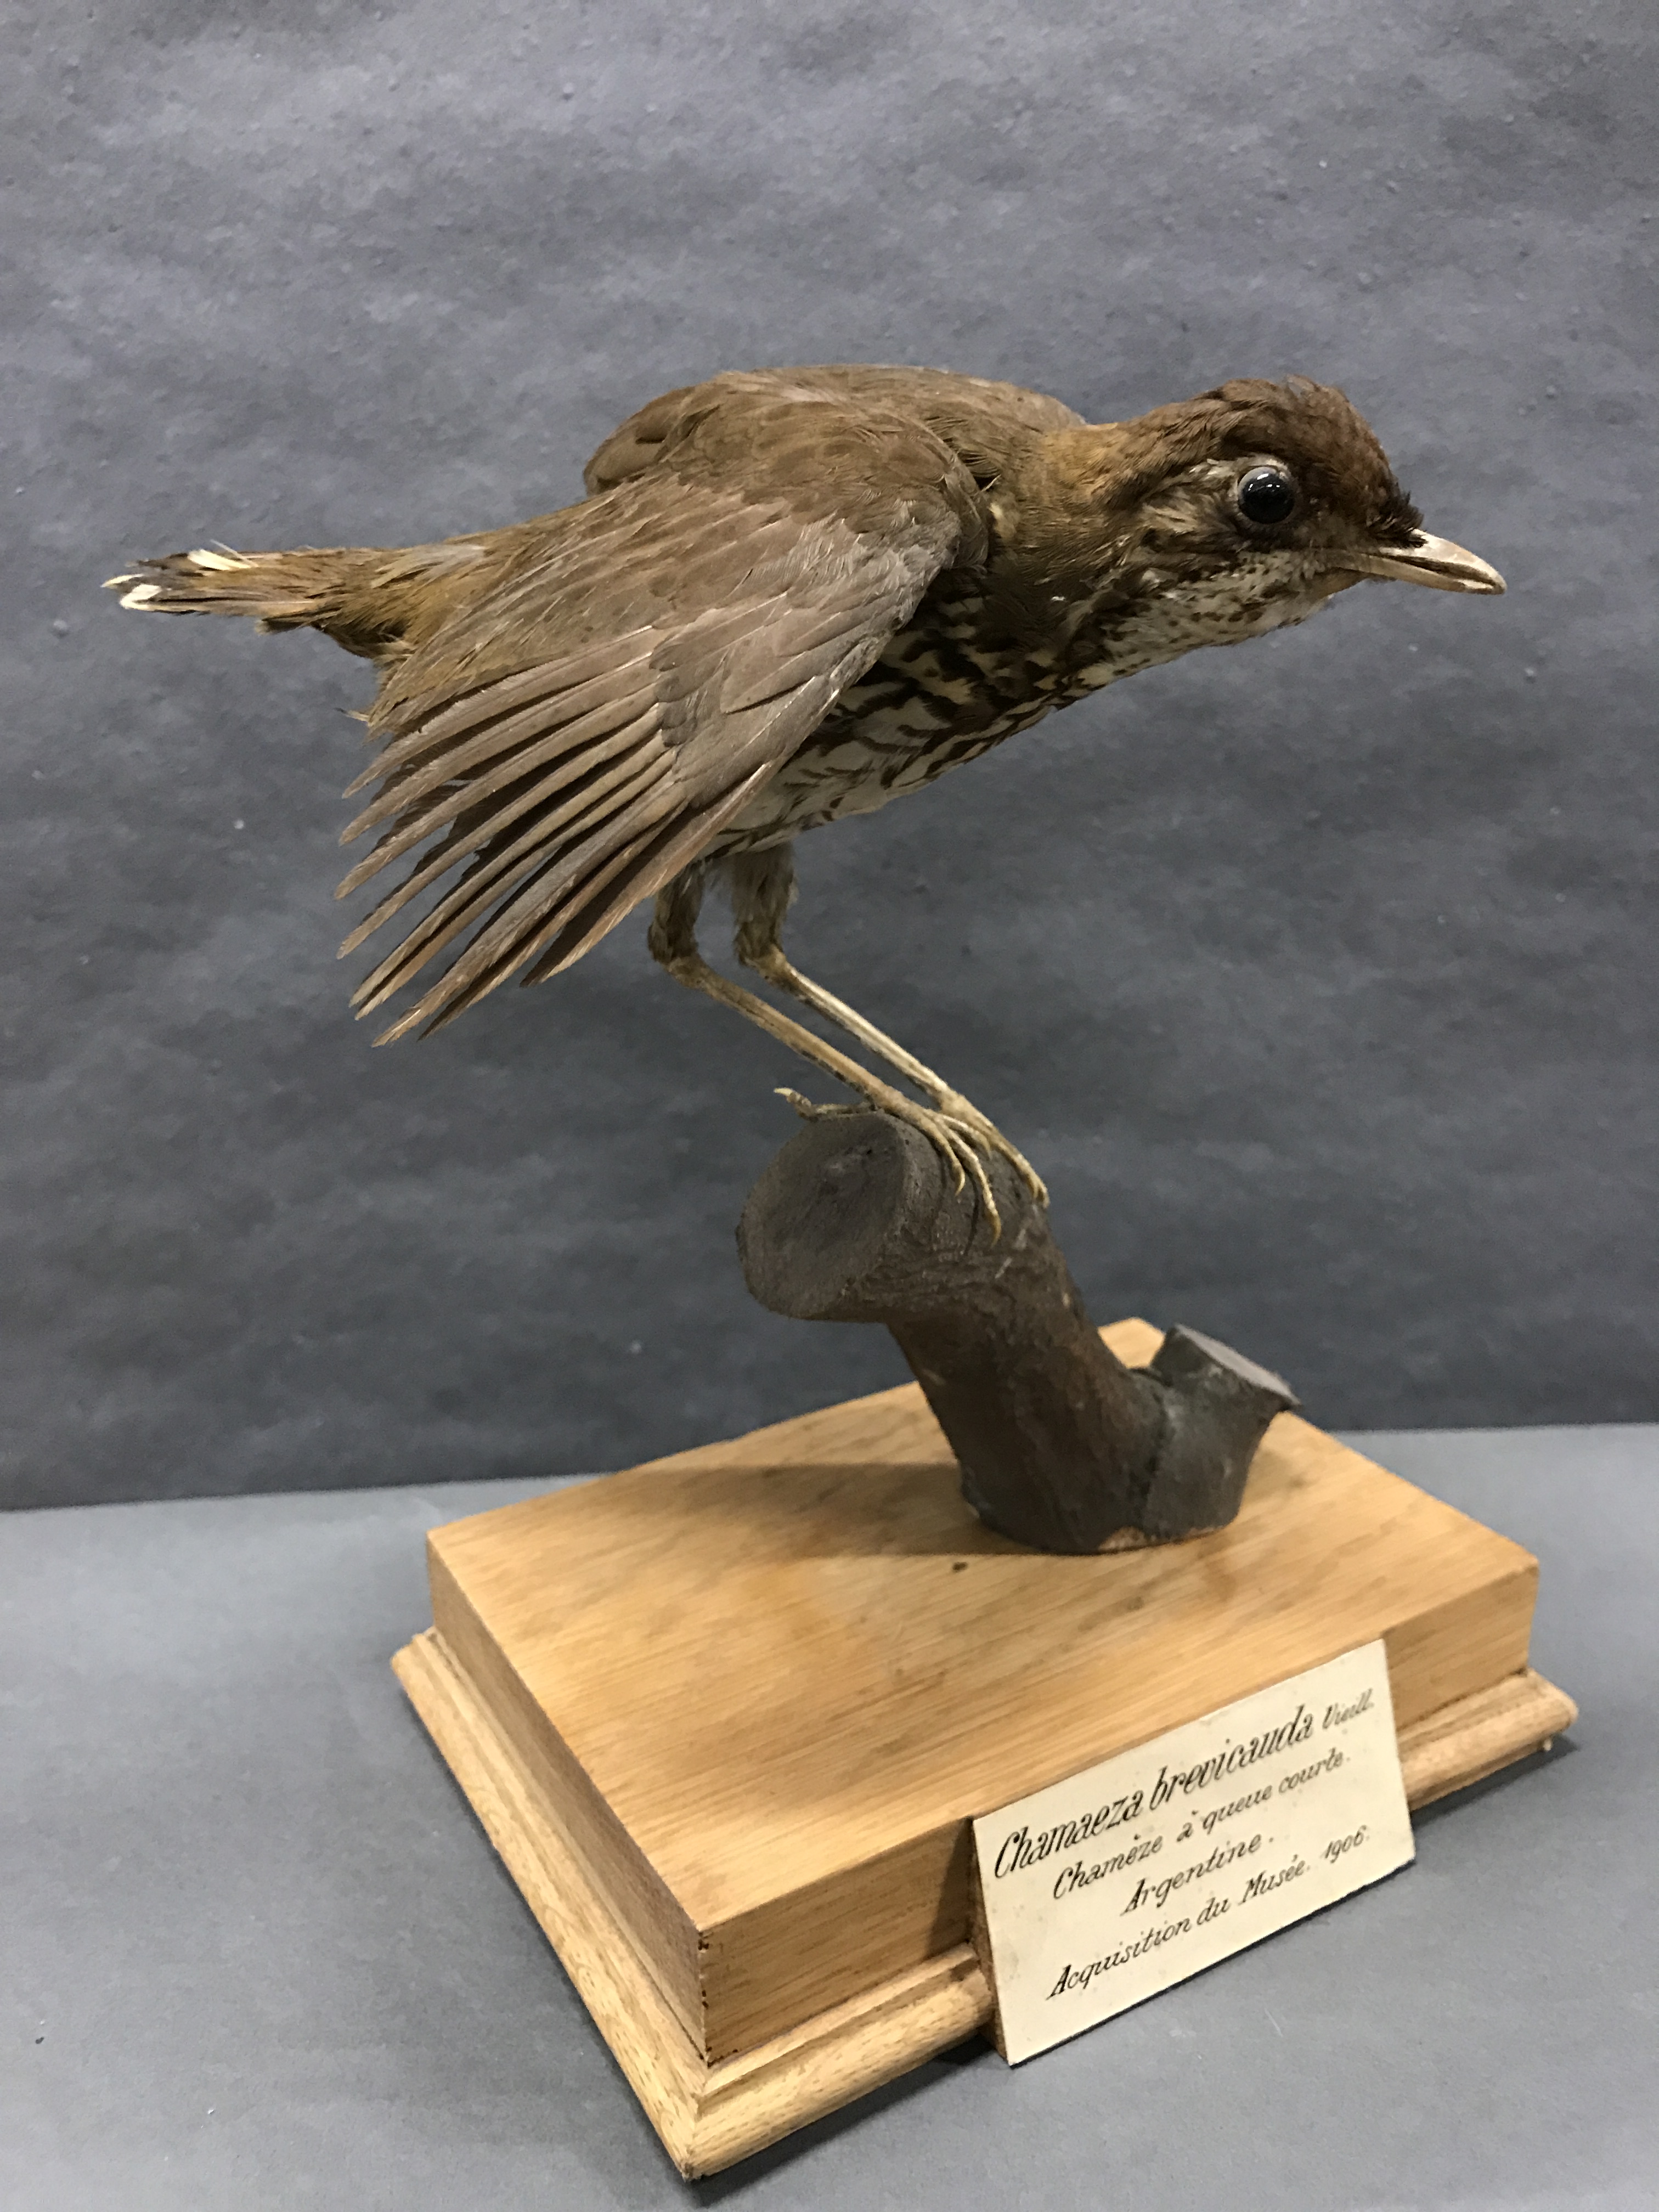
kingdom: Animalia
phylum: Chordata
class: Aves
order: Passeriformes
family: Formicariidae
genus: Chamaeza
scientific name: Chamaeza campanisona
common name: Short-tailed antthrush
